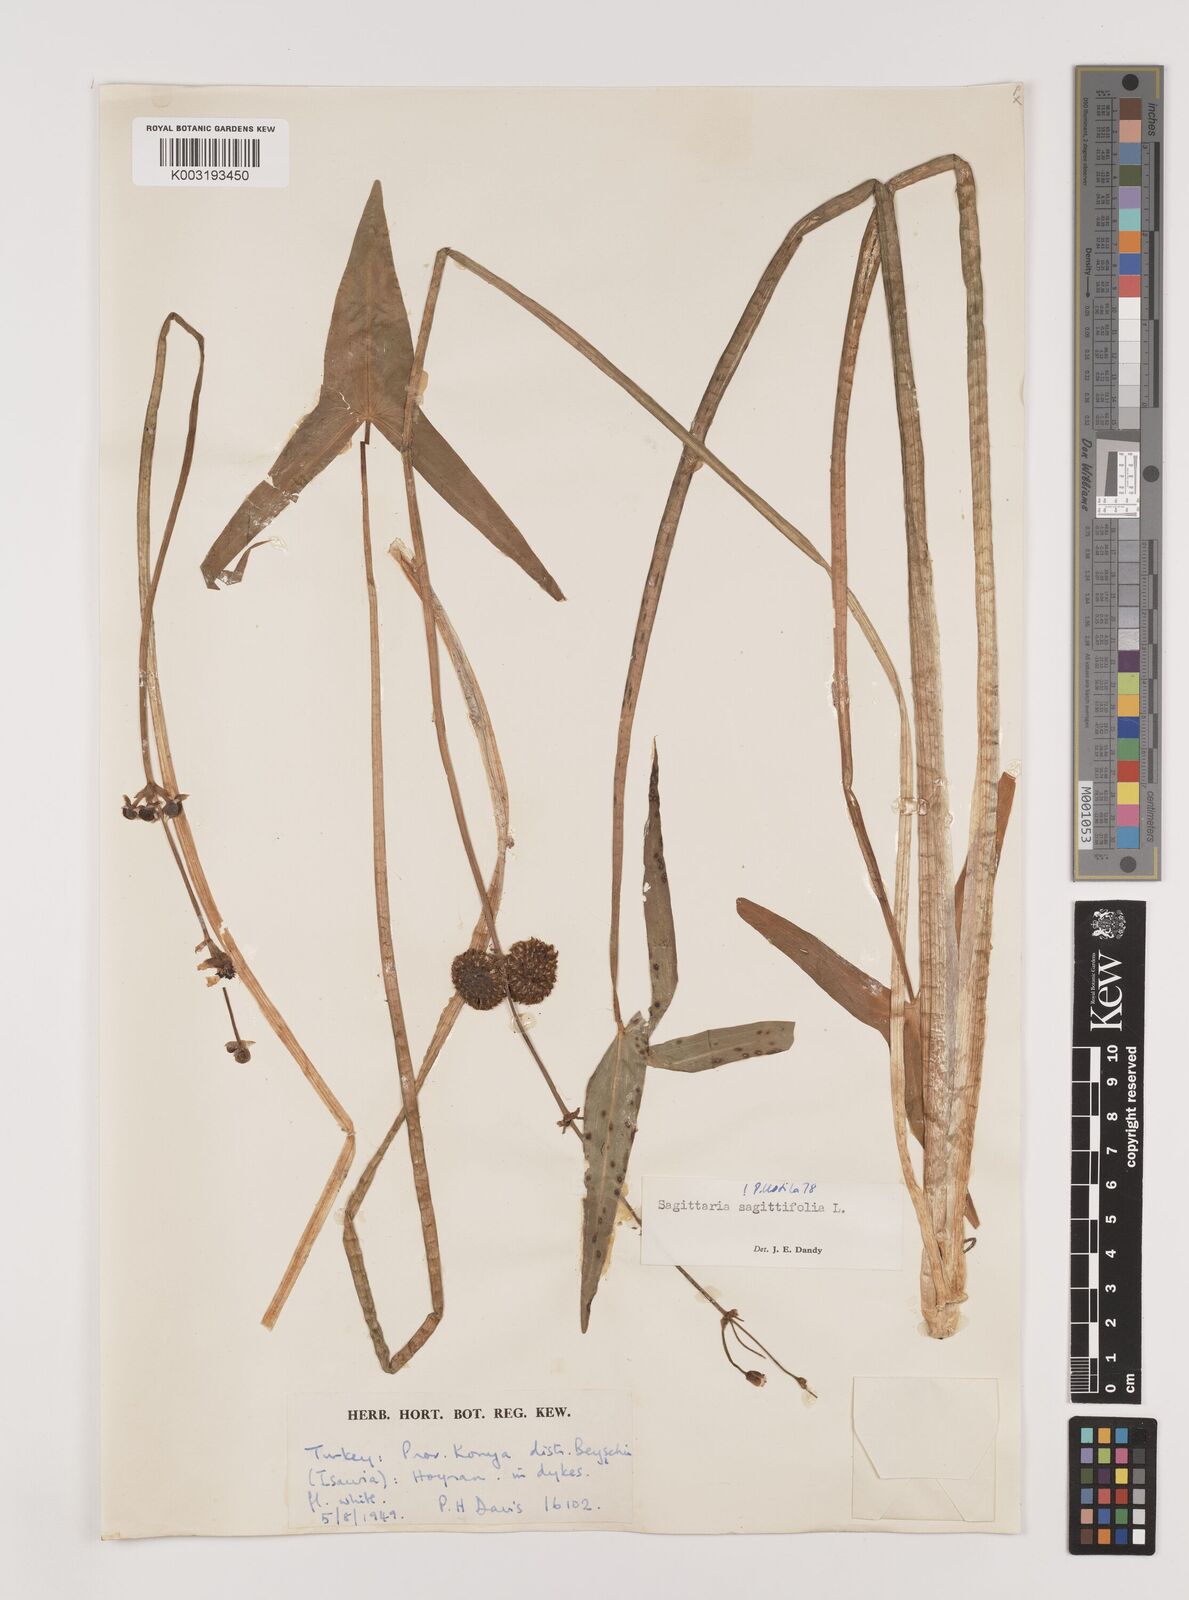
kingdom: Plantae
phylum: Tracheophyta
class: Liliopsida
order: Alismatales
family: Alismataceae
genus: Sagittaria
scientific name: Sagittaria sagittifolia
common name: Arrowhead
